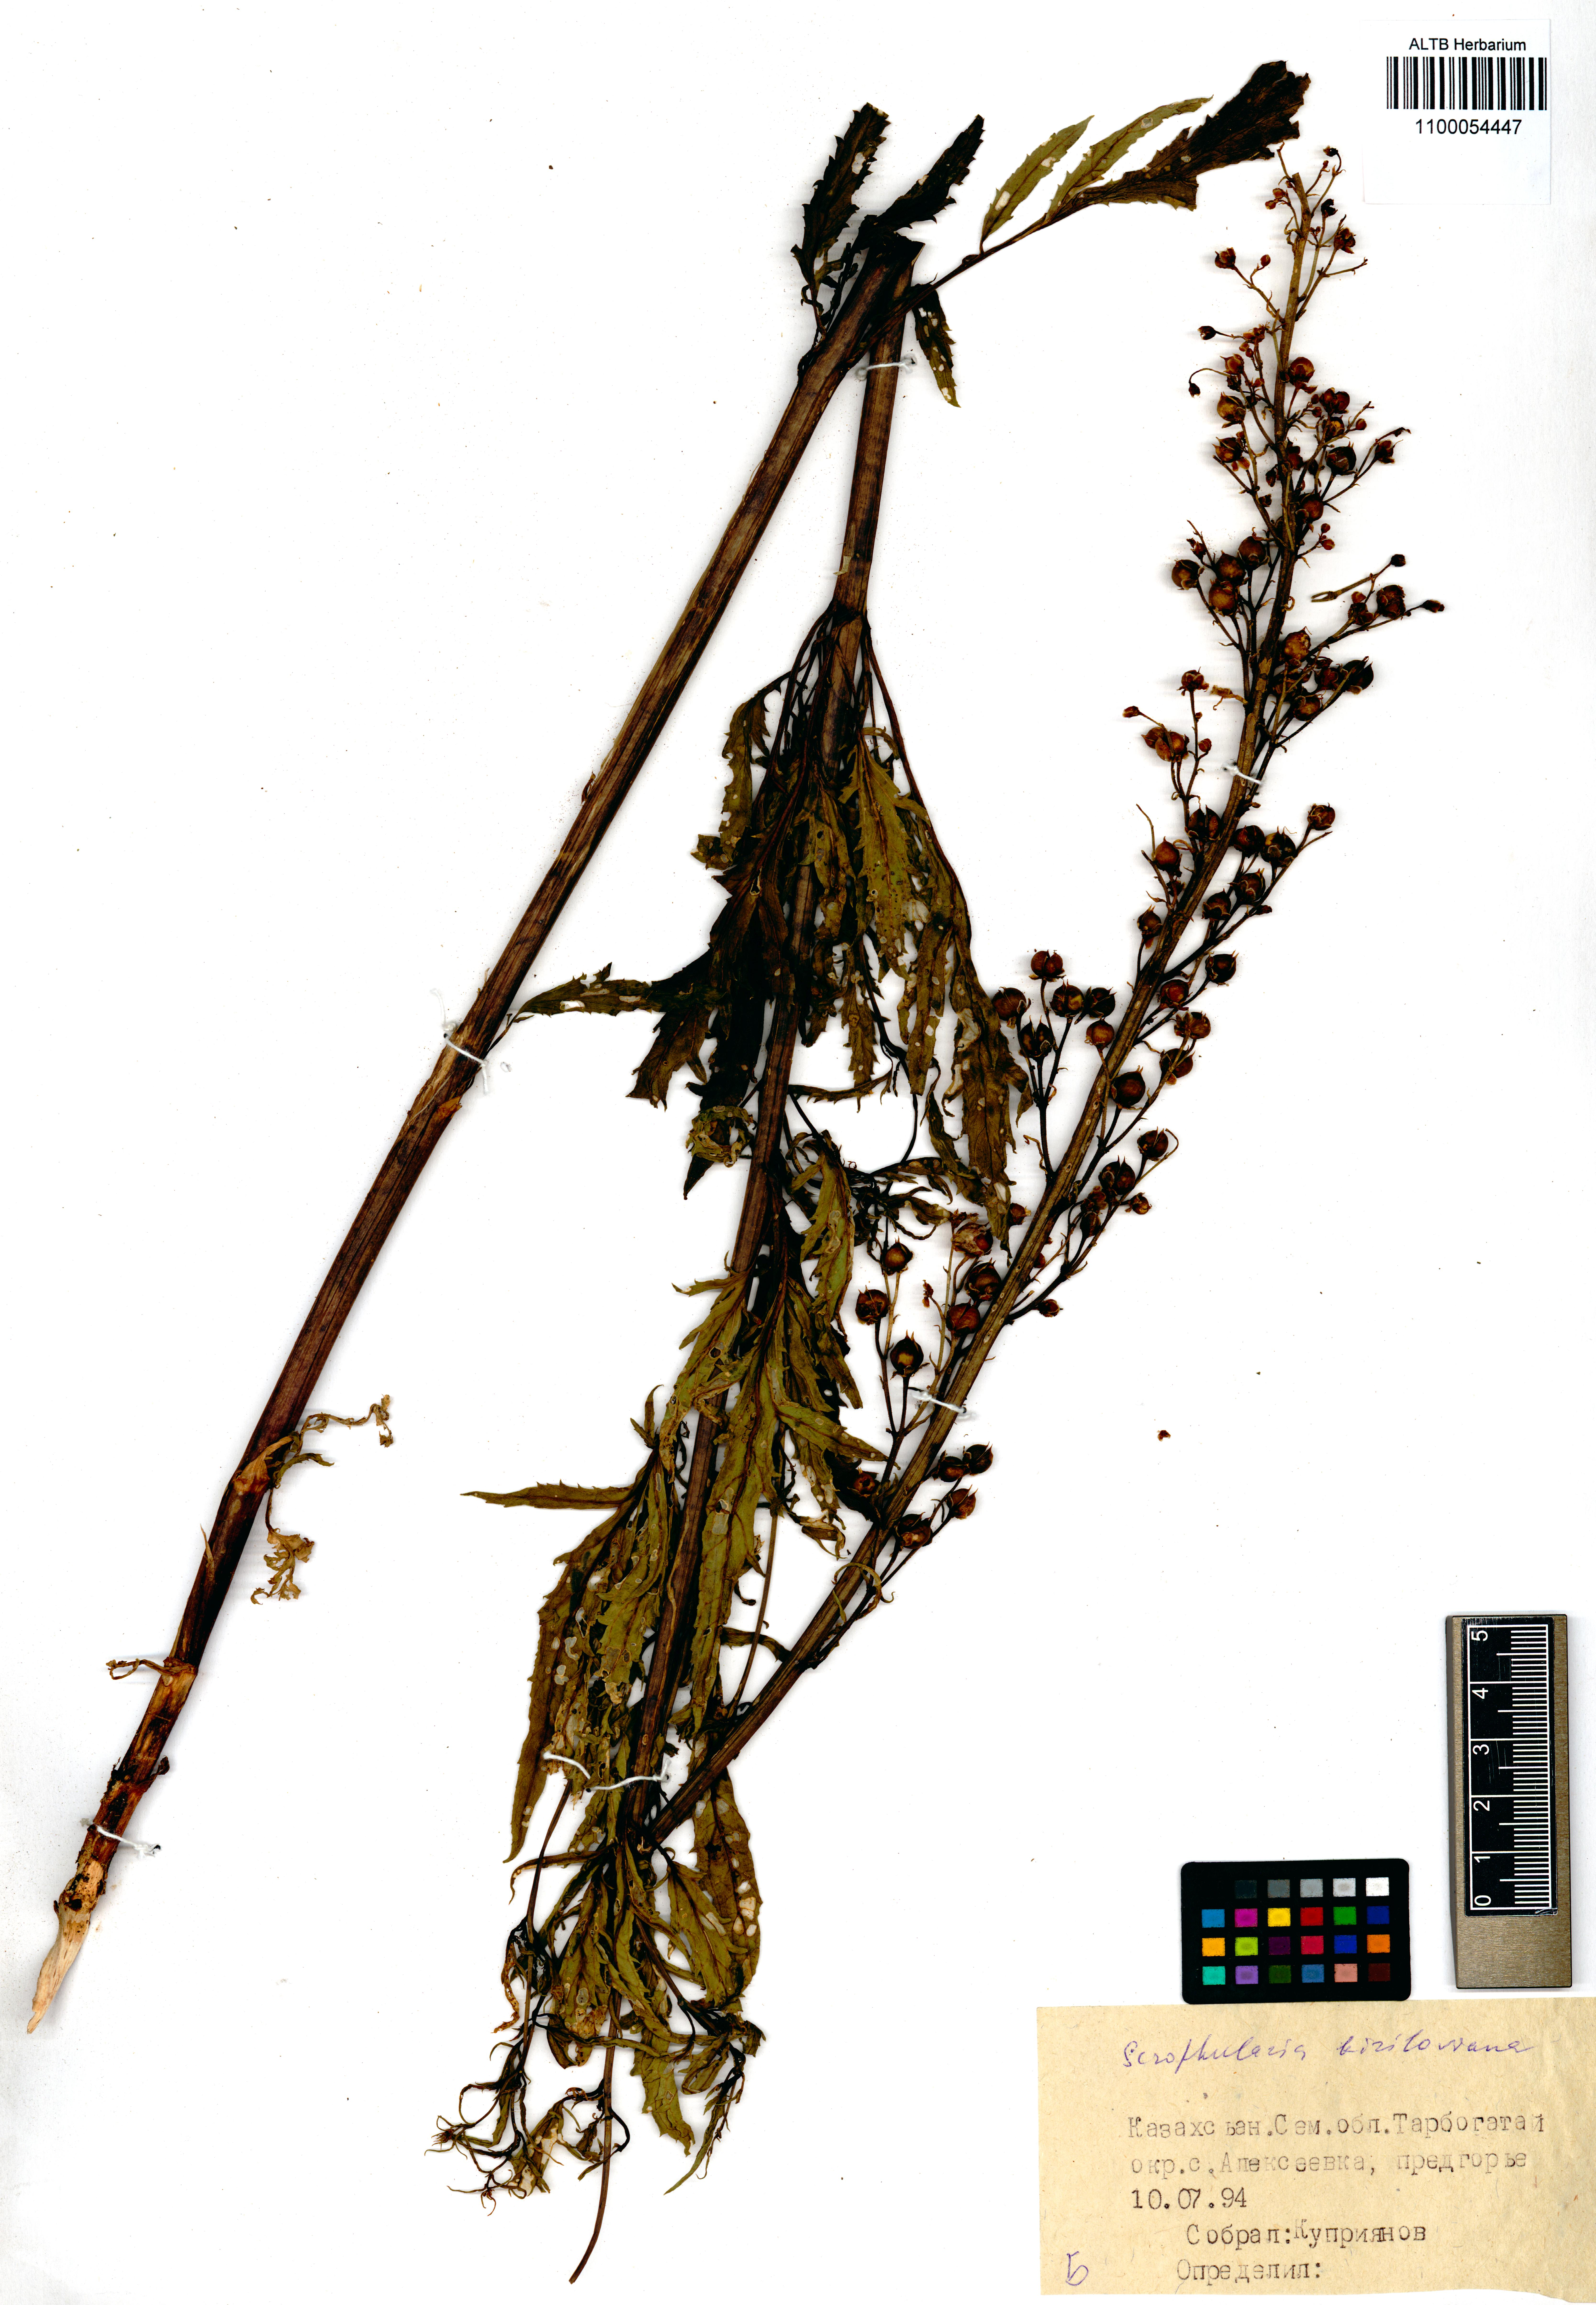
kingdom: Plantae
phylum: Tracheophyta
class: Magnoliopsida
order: Lamiales
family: Scrophulariaceae
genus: Scrophularia
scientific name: Scrophularia kiriloviana
